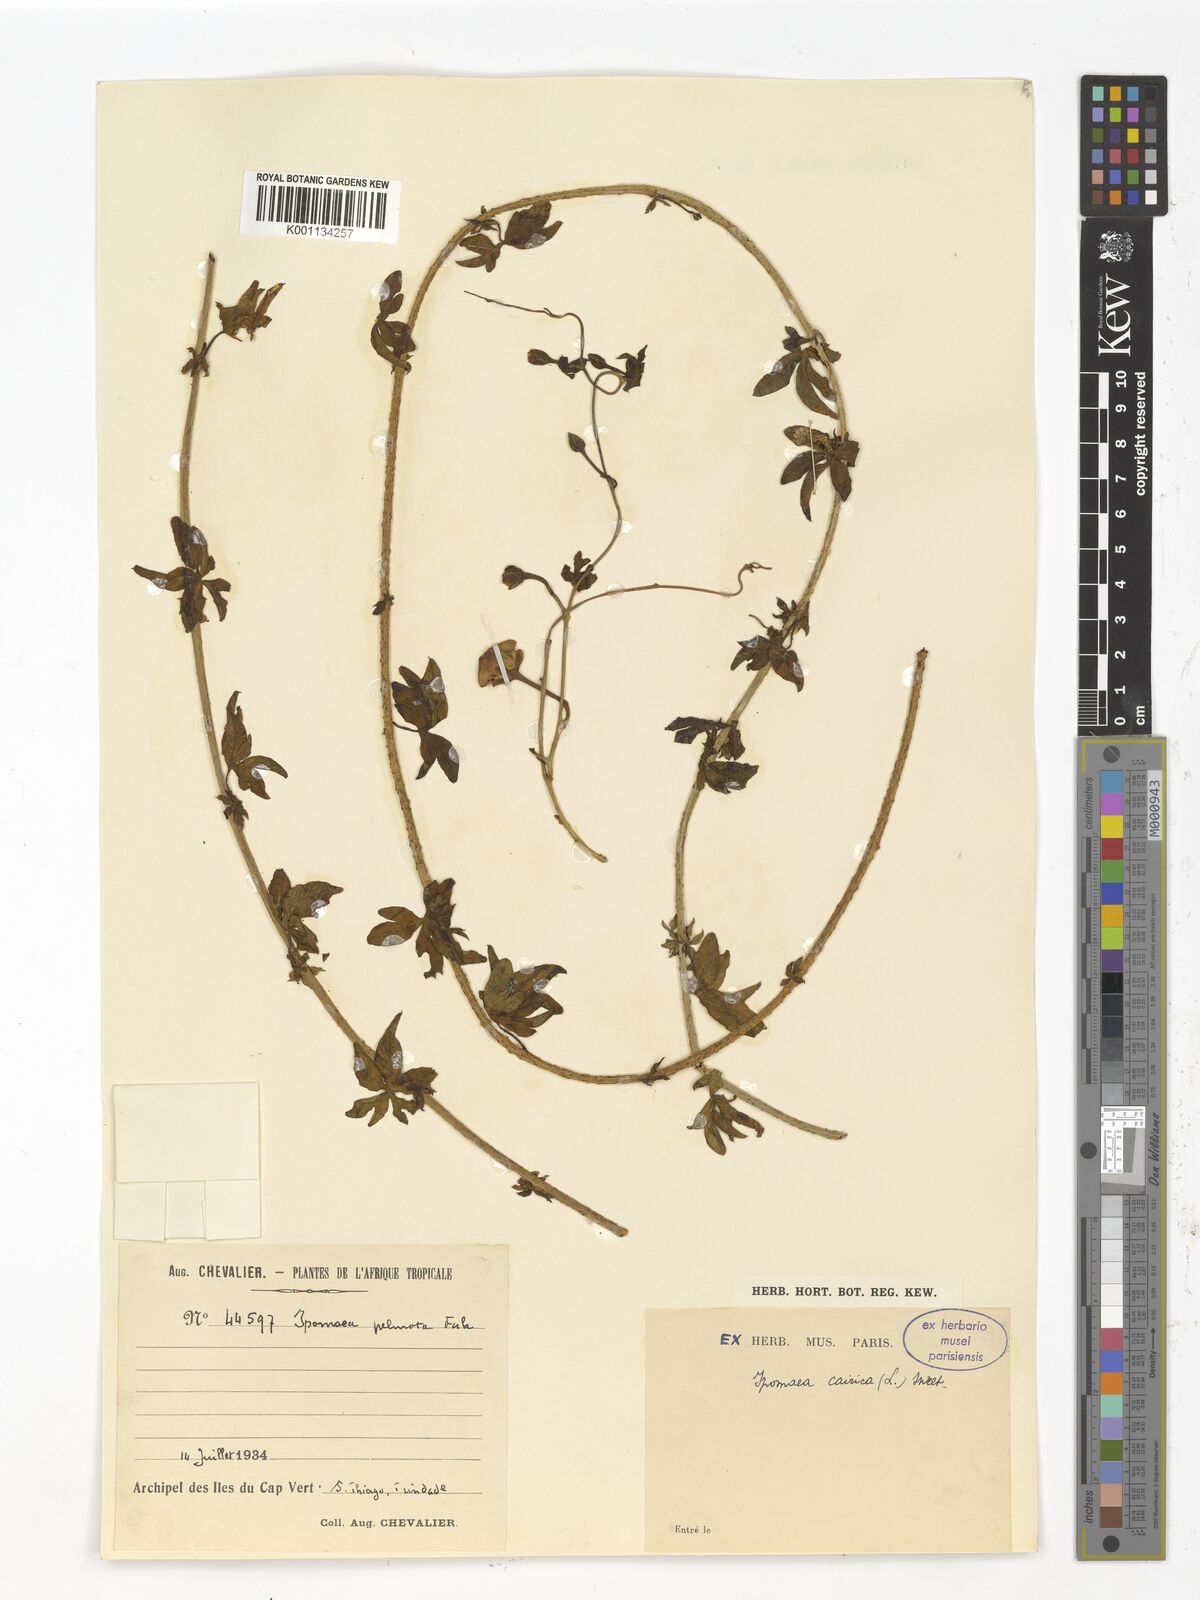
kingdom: Plantae
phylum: Tracheophyta
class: Magnoliopsida
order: Solanales
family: Convolvulaceae
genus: Ipomoea
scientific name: Ipomoea cairica
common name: Mile a minute vine
